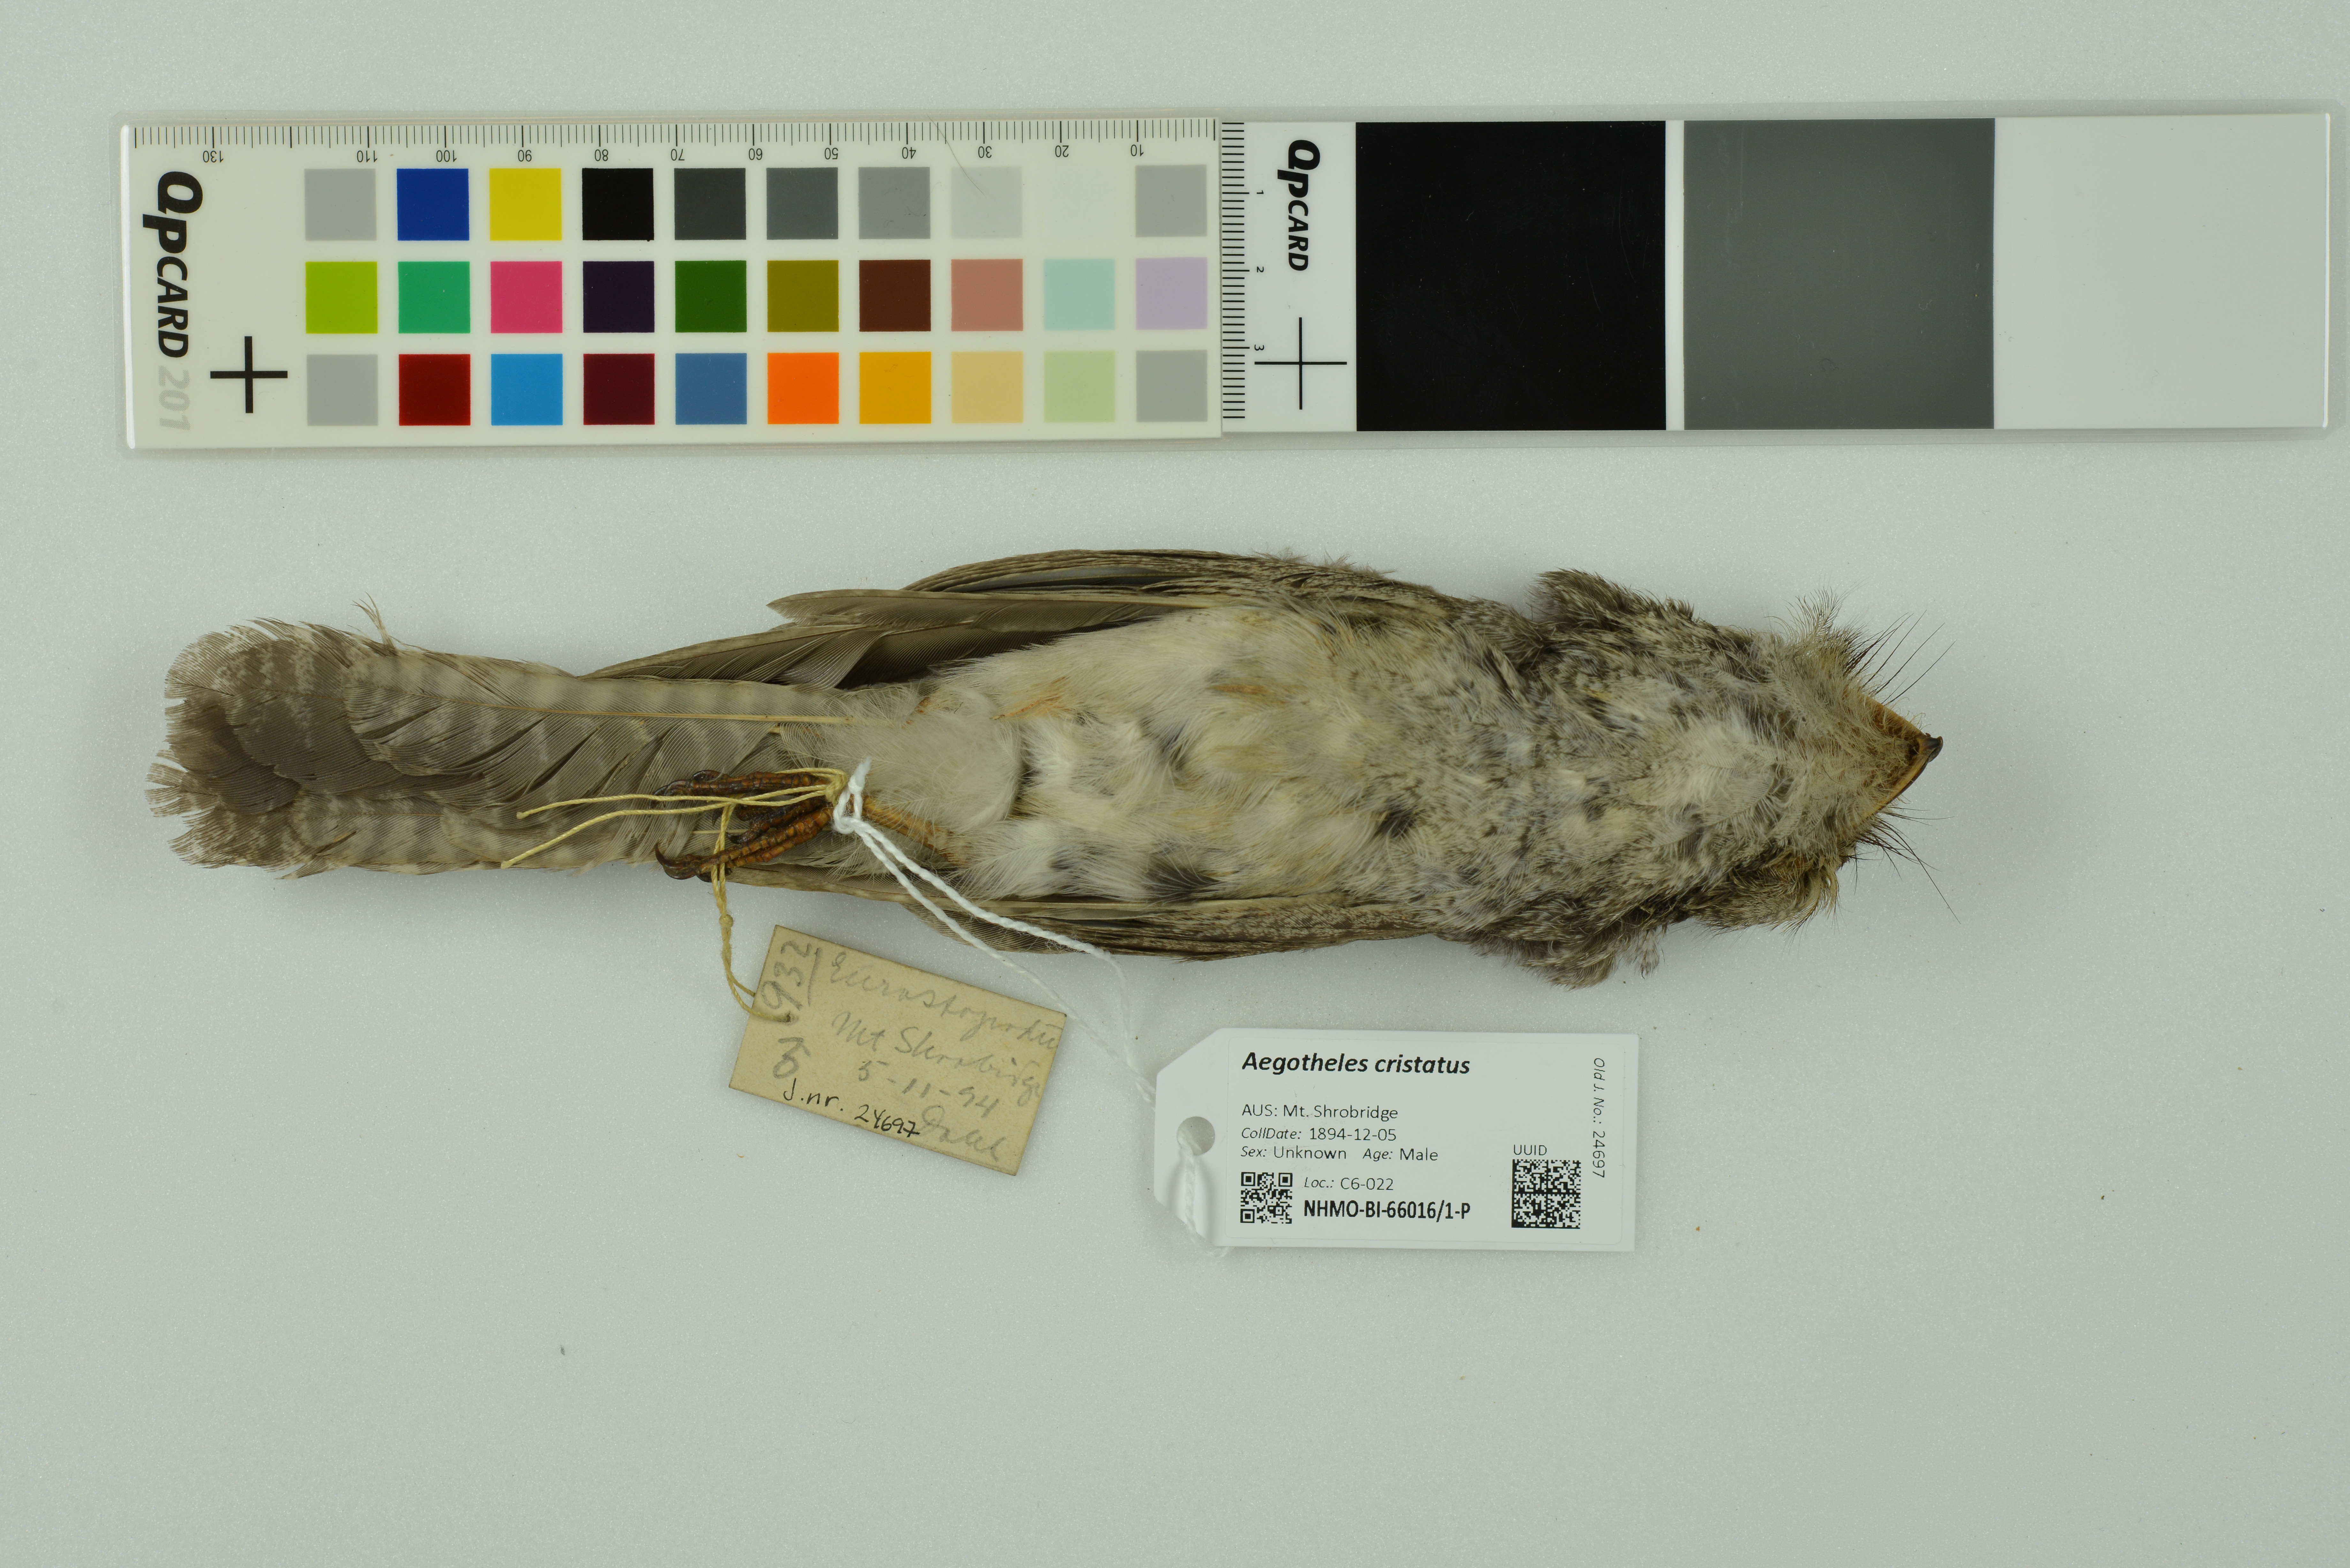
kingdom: Animalia
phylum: Chordata
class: Aves
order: Apodiformes
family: Aegothelidae
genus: Aegotheles
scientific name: Aegotheles cristatus
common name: Australian owlet-nightjar
